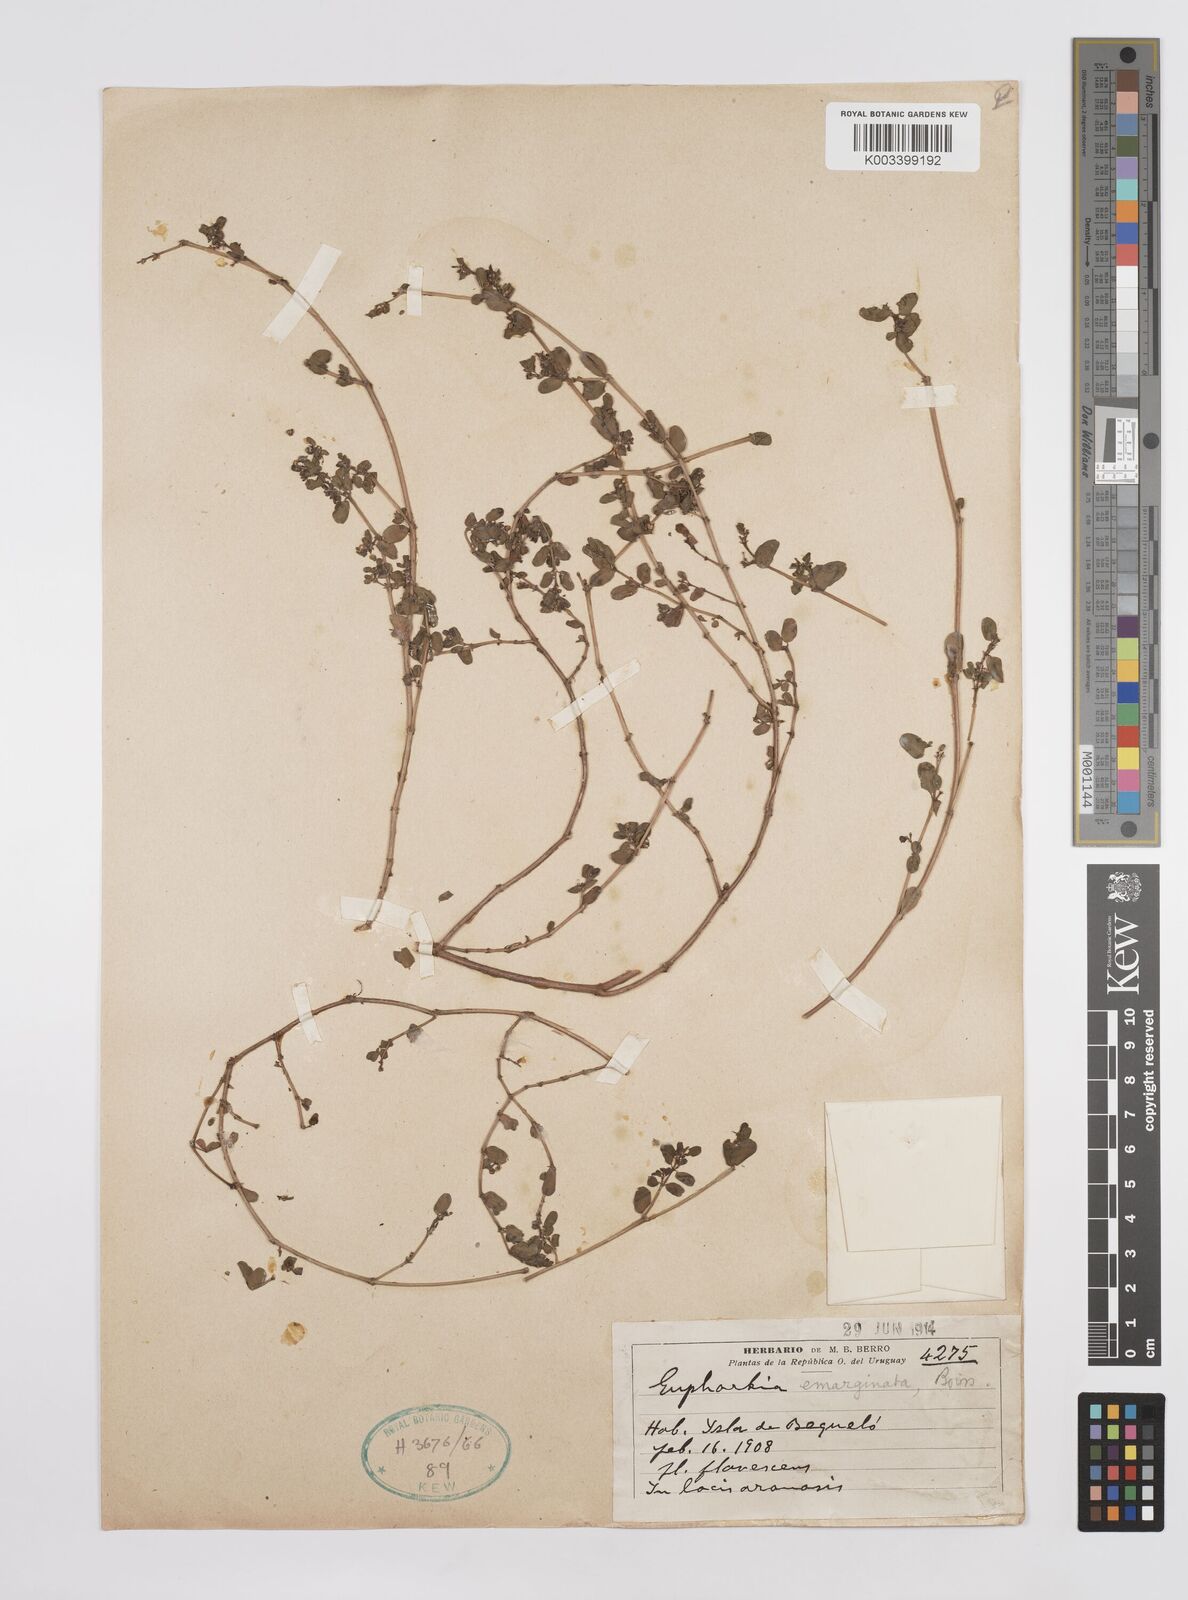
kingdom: Plantae
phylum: Tracheophyta
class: Magnoliopsida
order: Malpighiales
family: Euphorbiaceae
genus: Euphorbia
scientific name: Euphorbia serpens
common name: Matted sandmat
